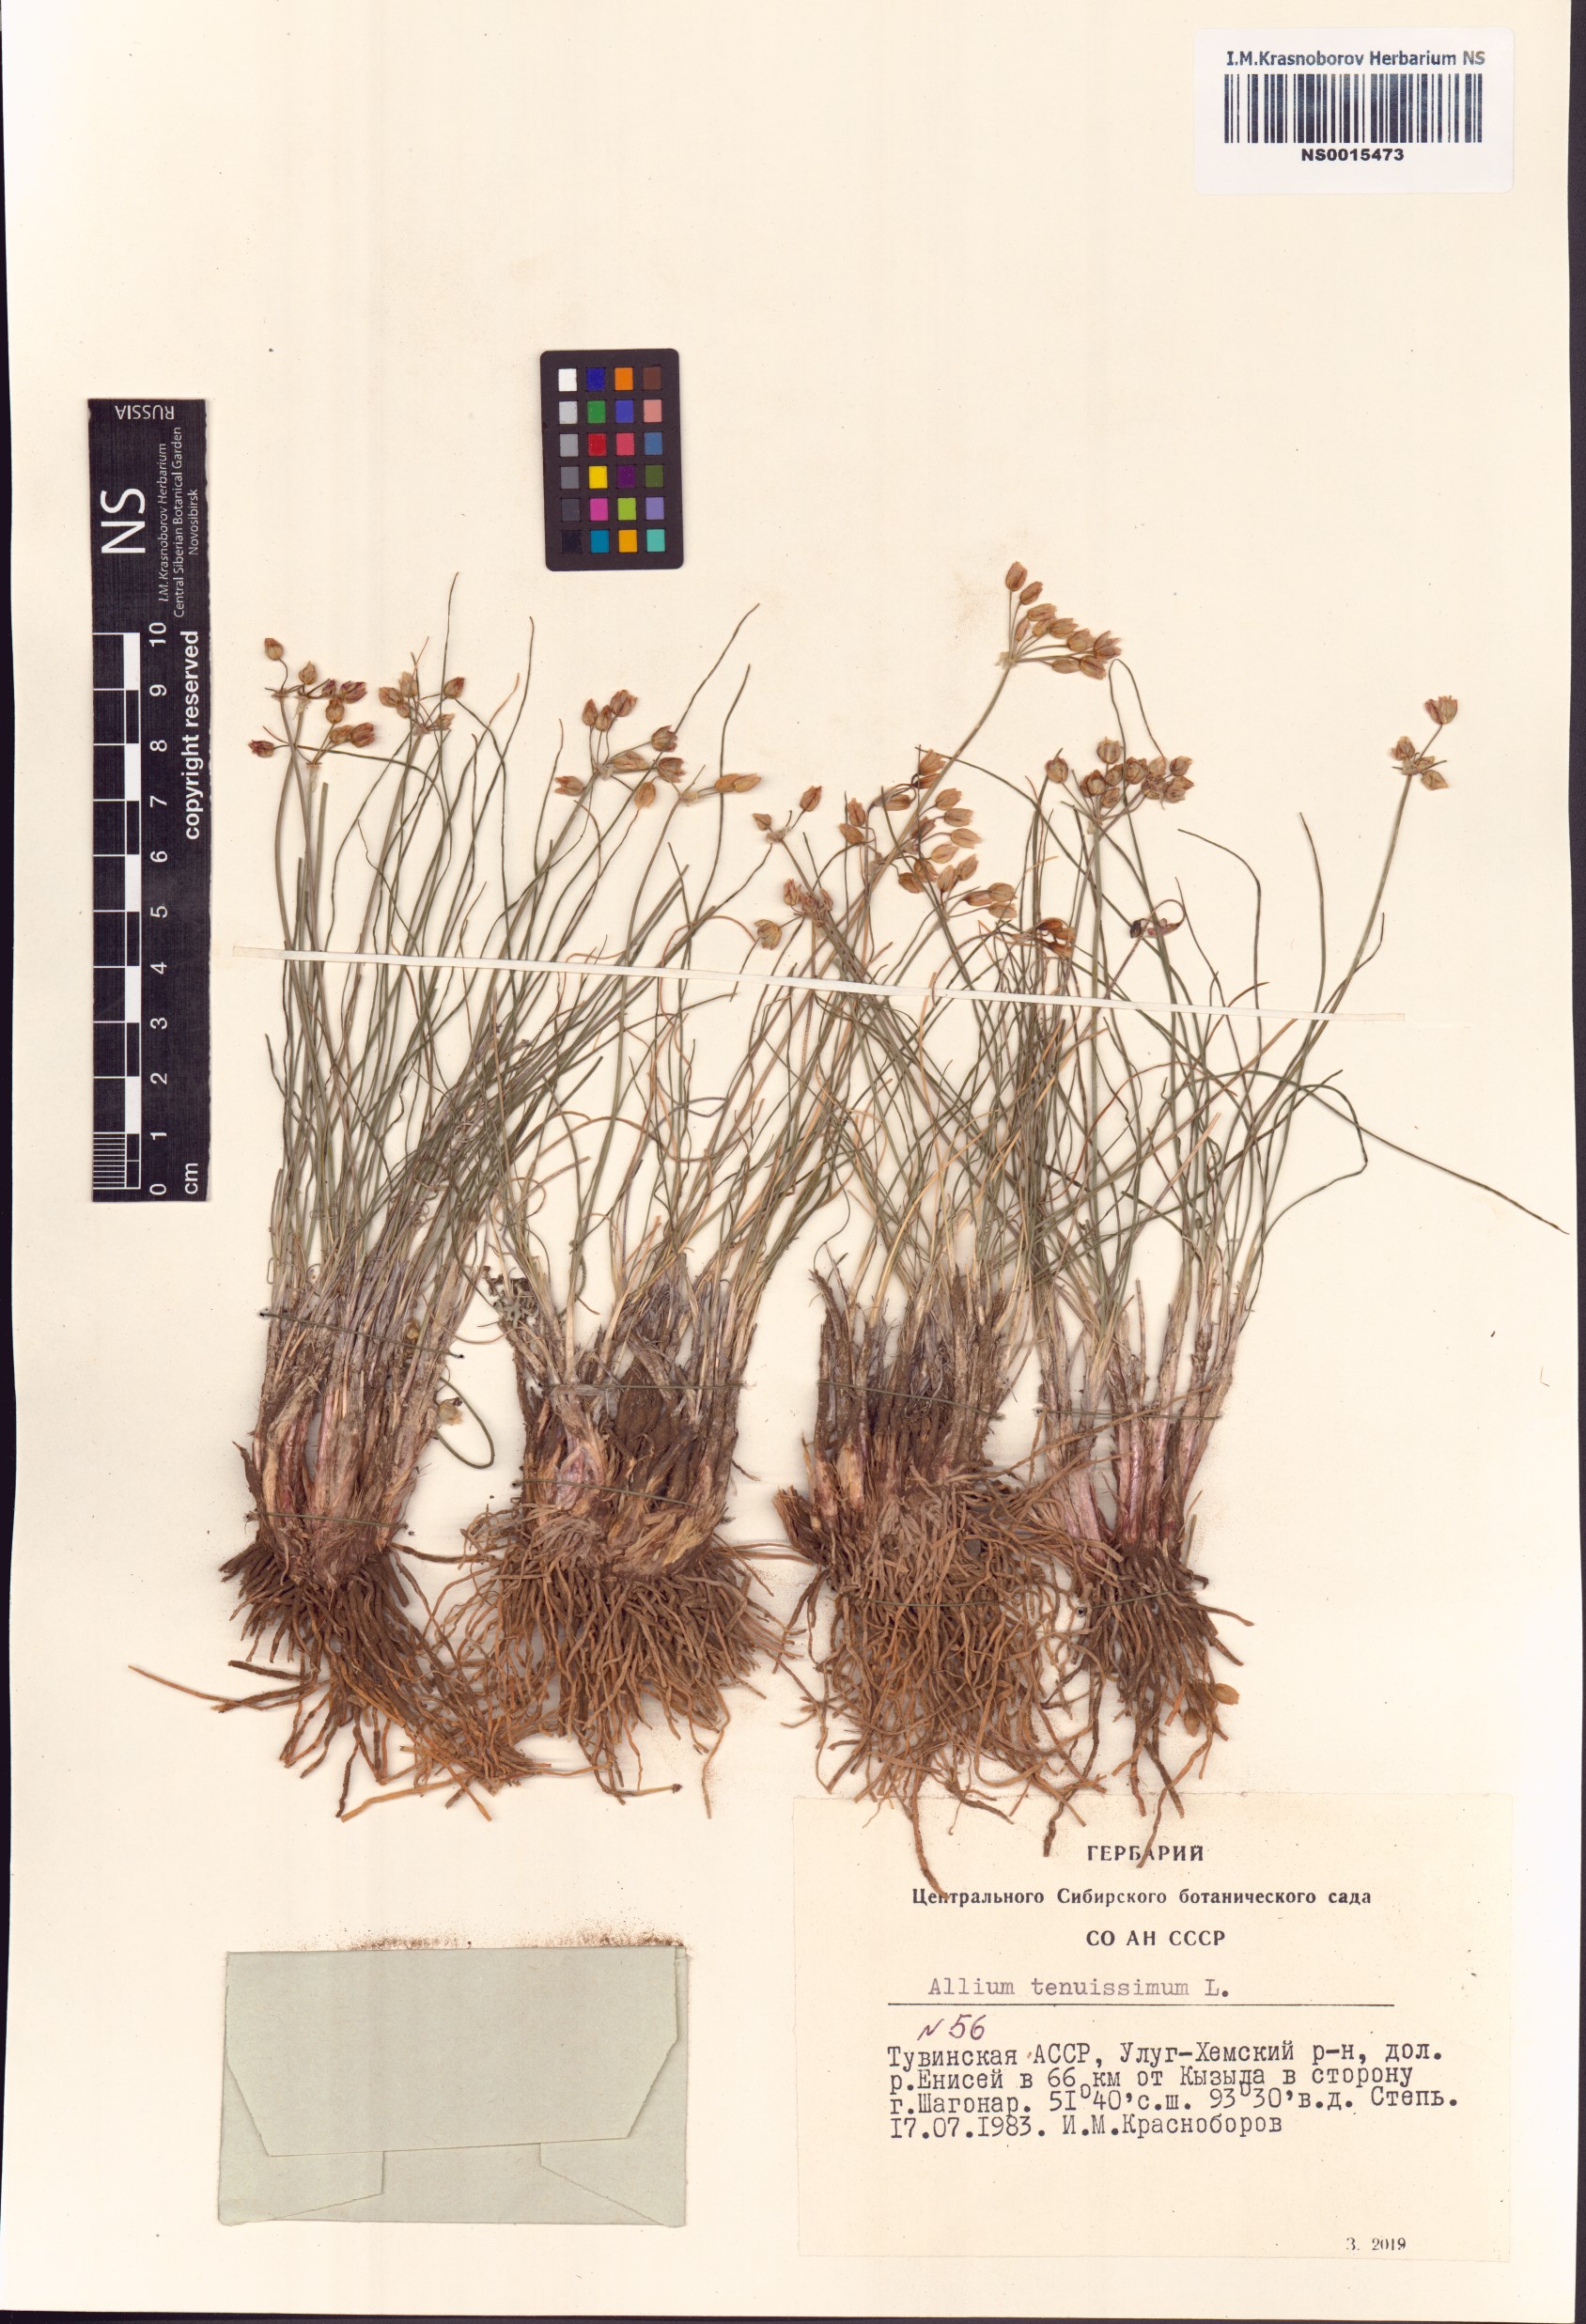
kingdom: Plantae
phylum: Tracheophyta
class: Liliopsida
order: Asparagales
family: Amaryllidaceae
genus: Allium
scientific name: Allium tenuissimum
